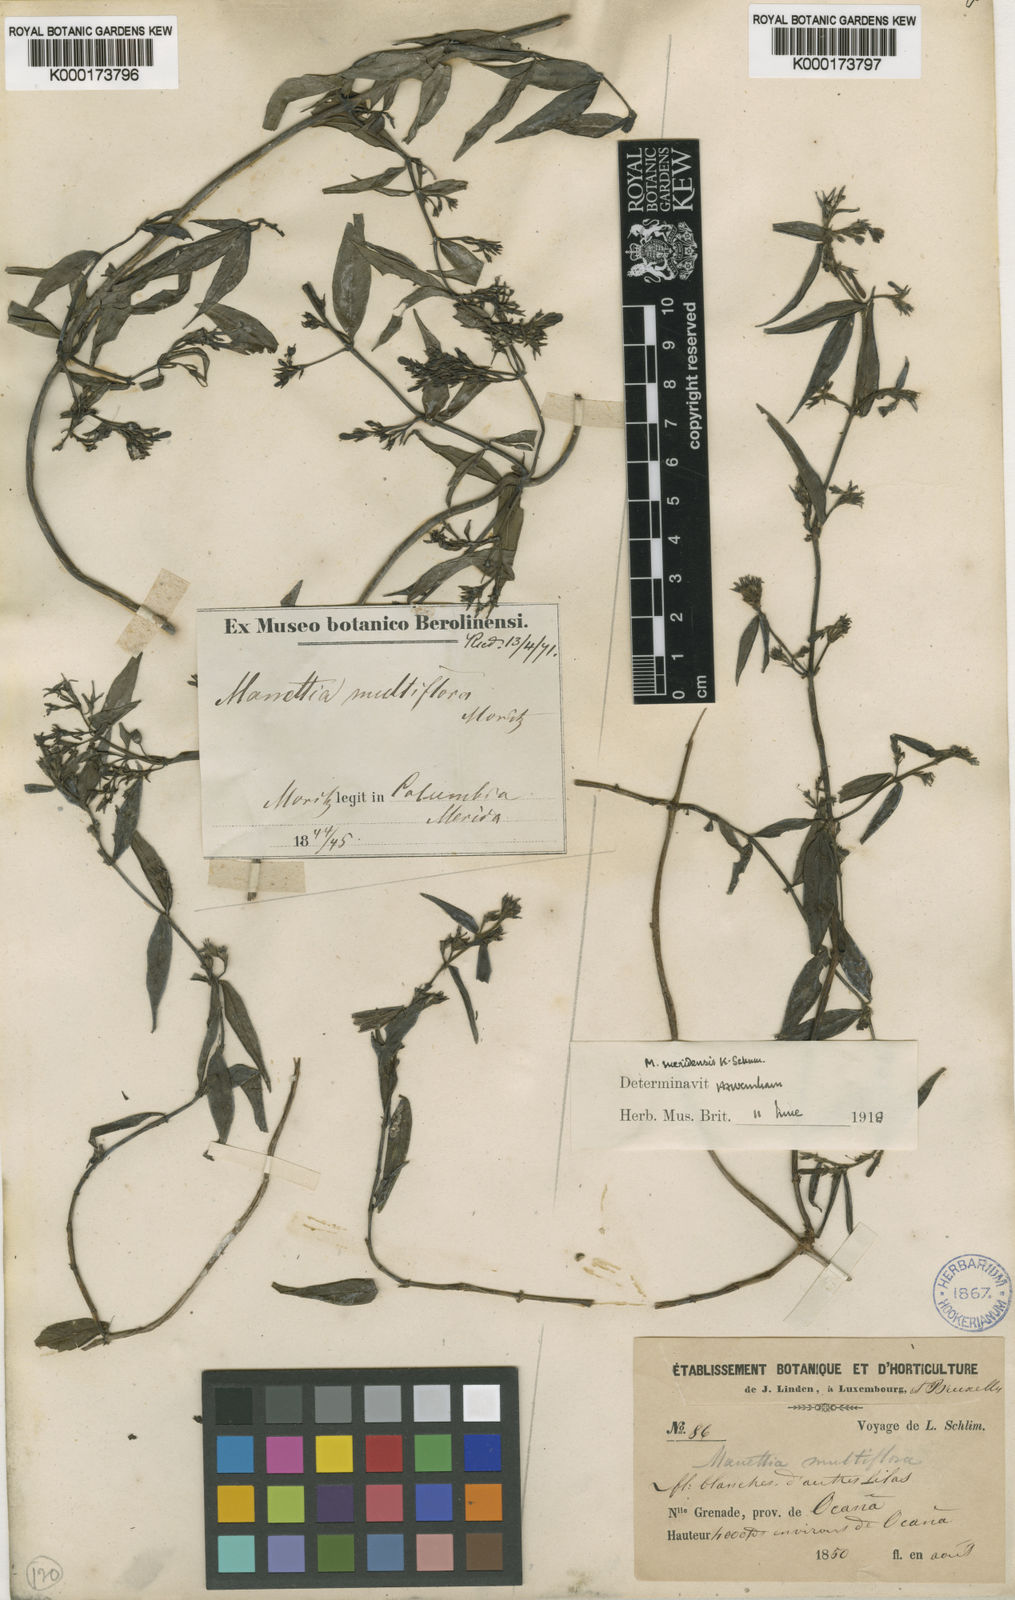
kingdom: Plantae
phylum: Tracheophyta
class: Magnoliopsida
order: Gentianales
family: Rubiaceae
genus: Manettia
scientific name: Manettia meridensis
